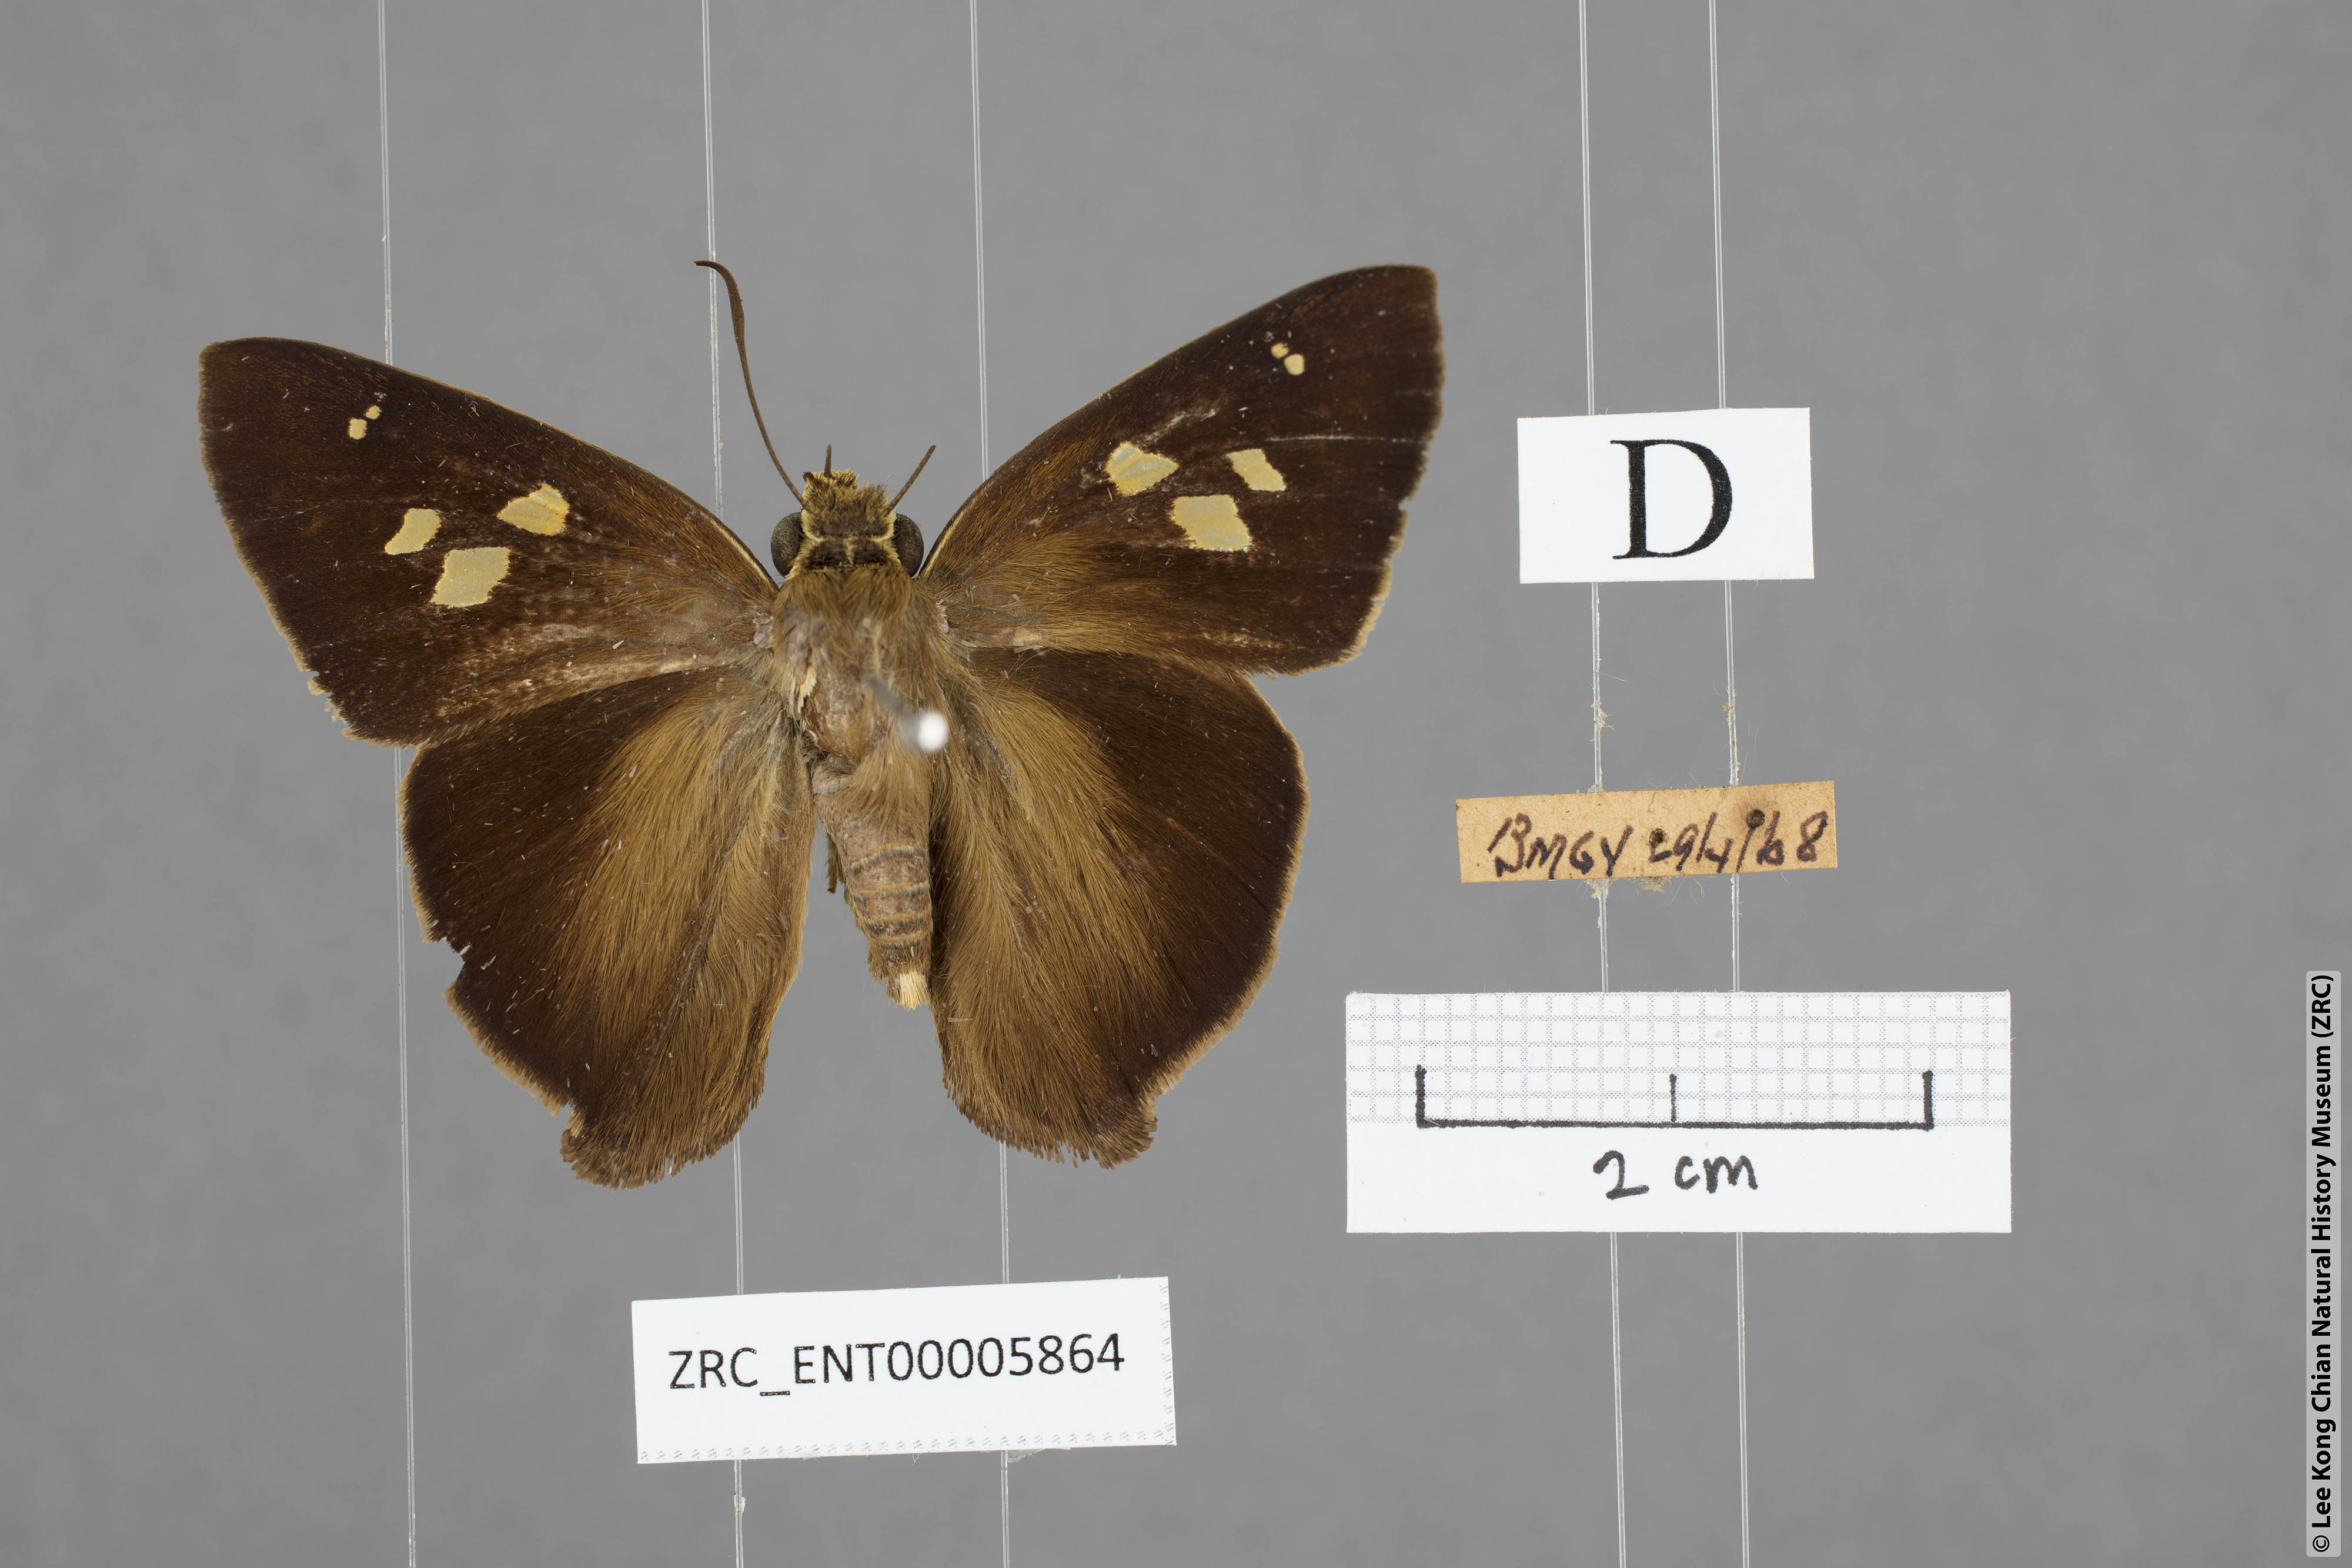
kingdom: Animalia
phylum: Arthropoda
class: Insecta
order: Lepidoptera
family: Hesperiidae
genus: Hasora
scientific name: Hasora badra
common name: Common awl
